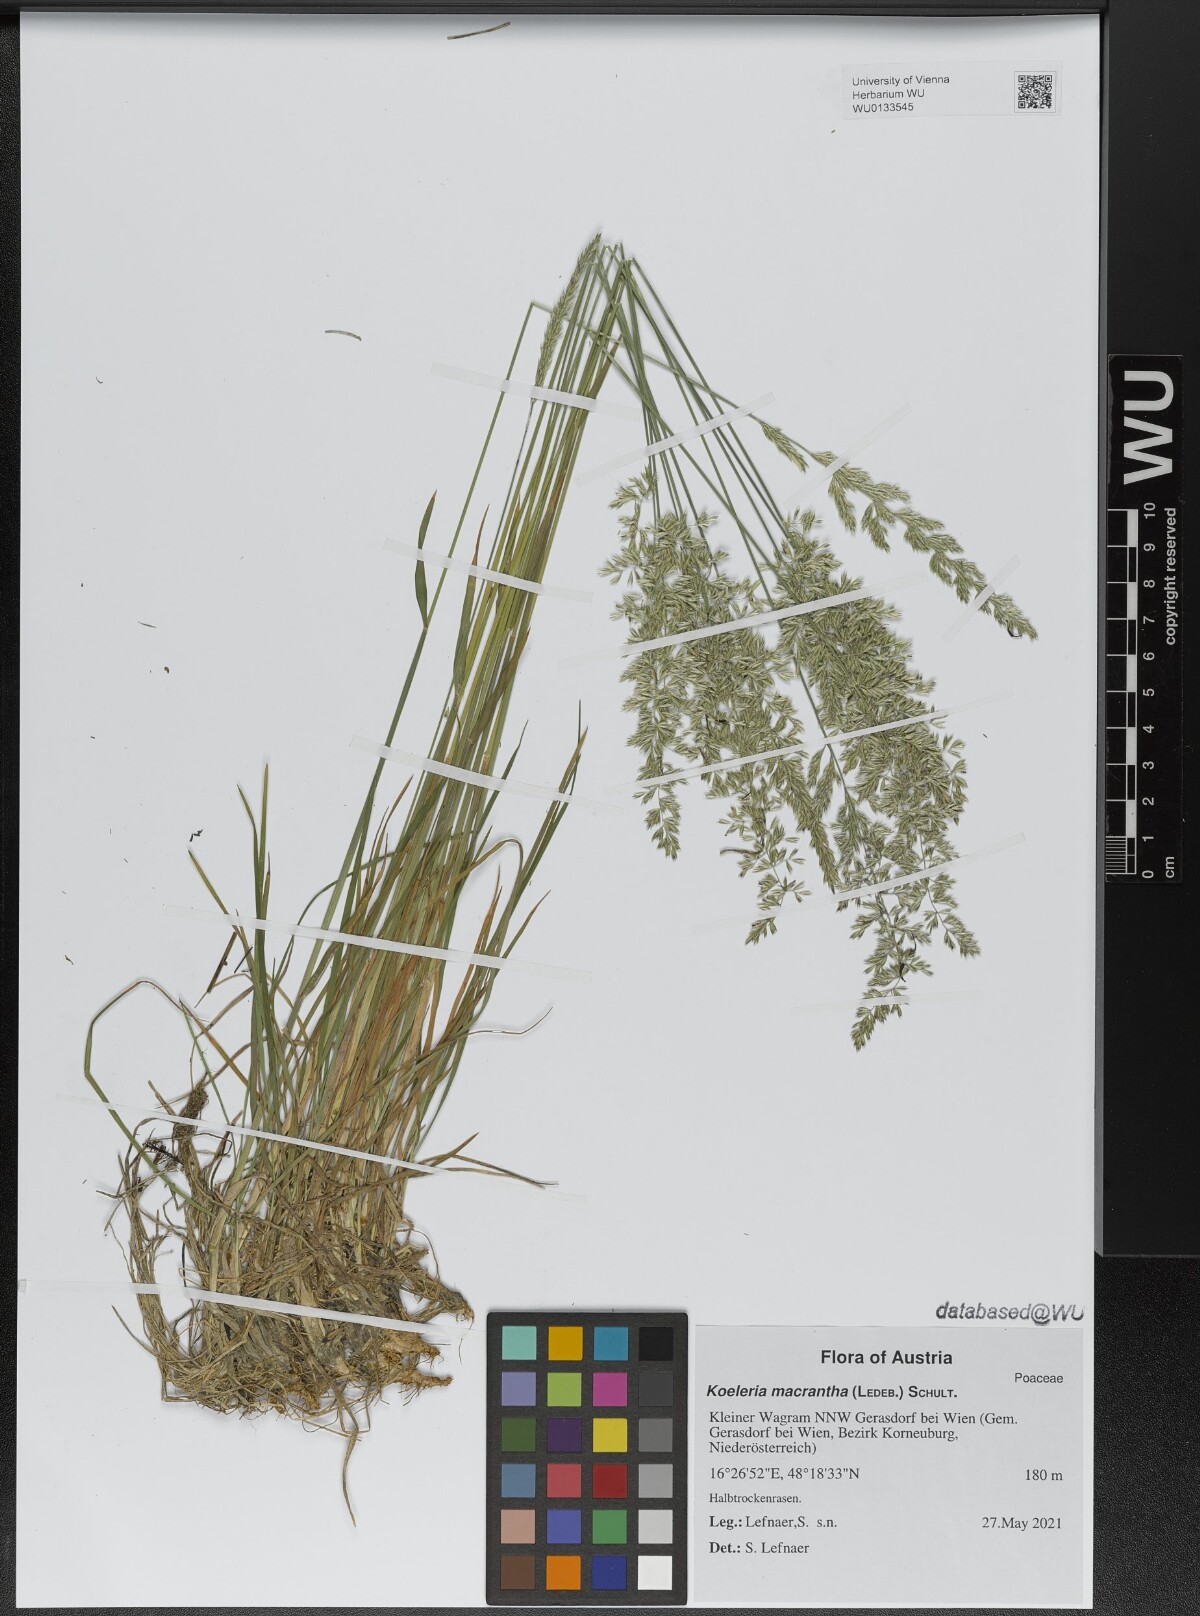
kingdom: Plantae
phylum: Tracheophyta
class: Liliopsida
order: Poales
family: Poaceae
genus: Koeleria
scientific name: Koeleria macrantha
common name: Crested hair-grass
